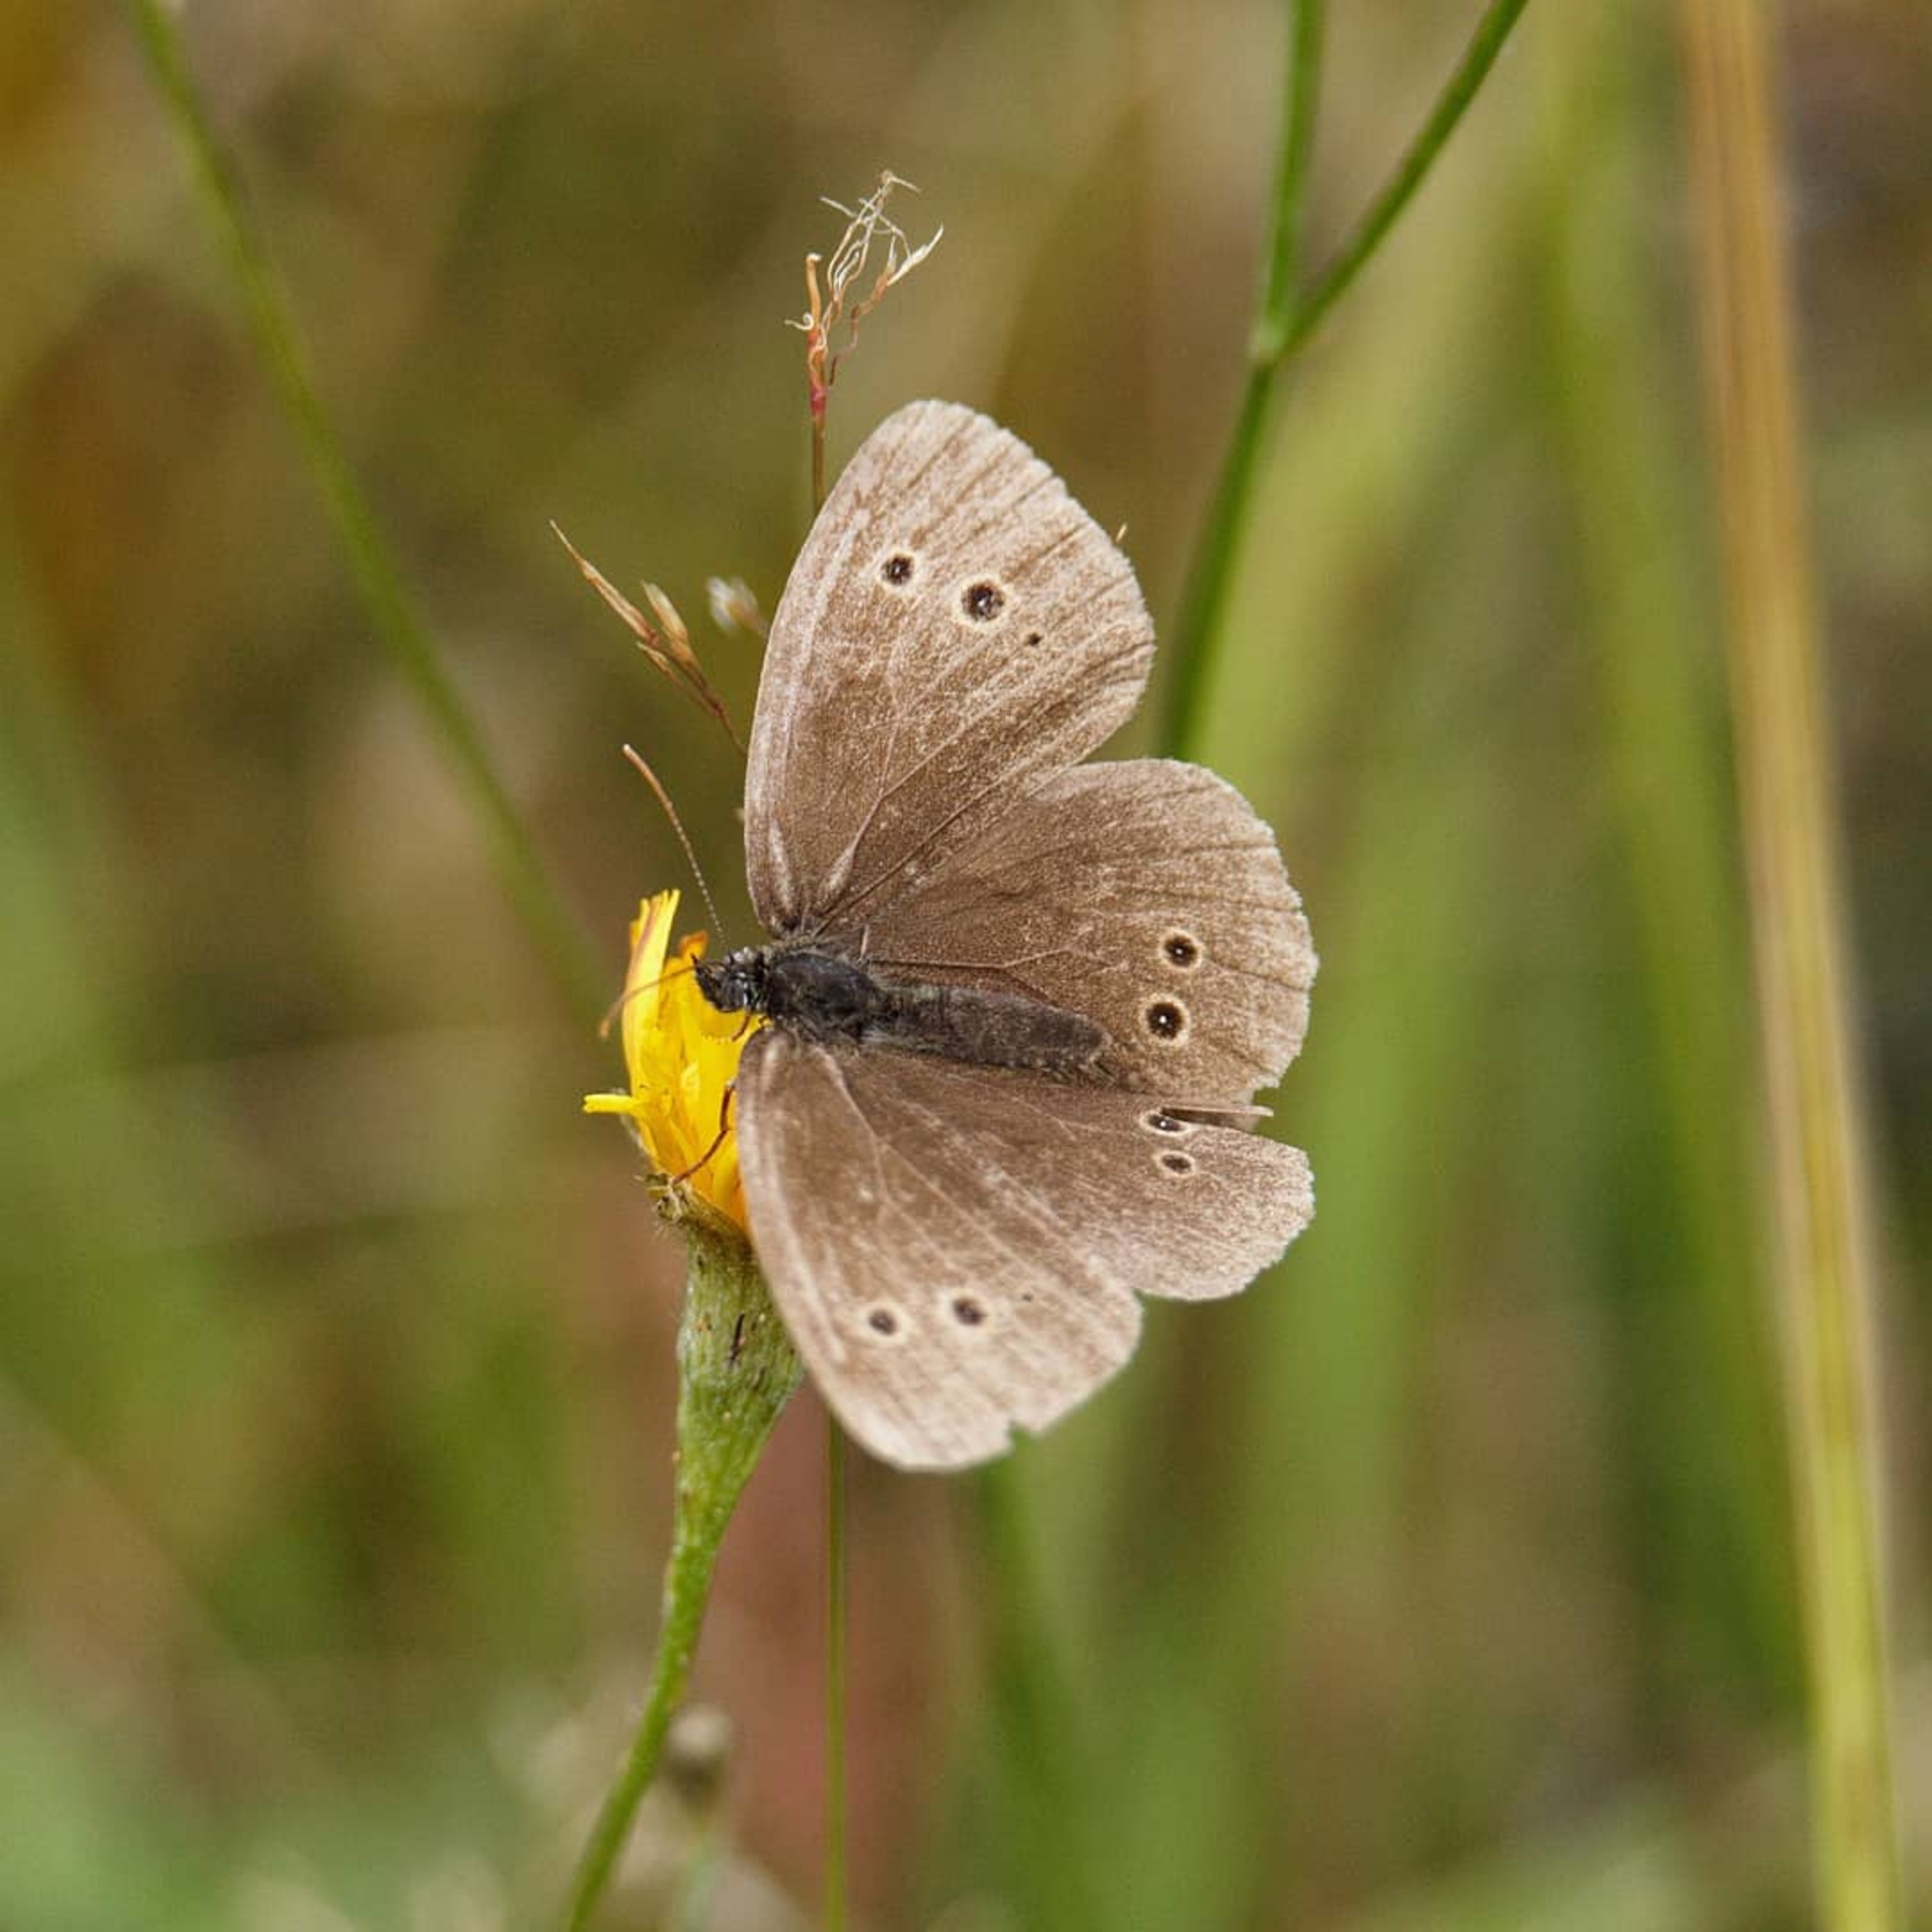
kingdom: Animalia
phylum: Arthropoda
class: Insecta
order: Lepidoptera
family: Nymphalidae
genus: Aphantopus
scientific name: Aphantopus hyperantus
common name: Engrandøje
